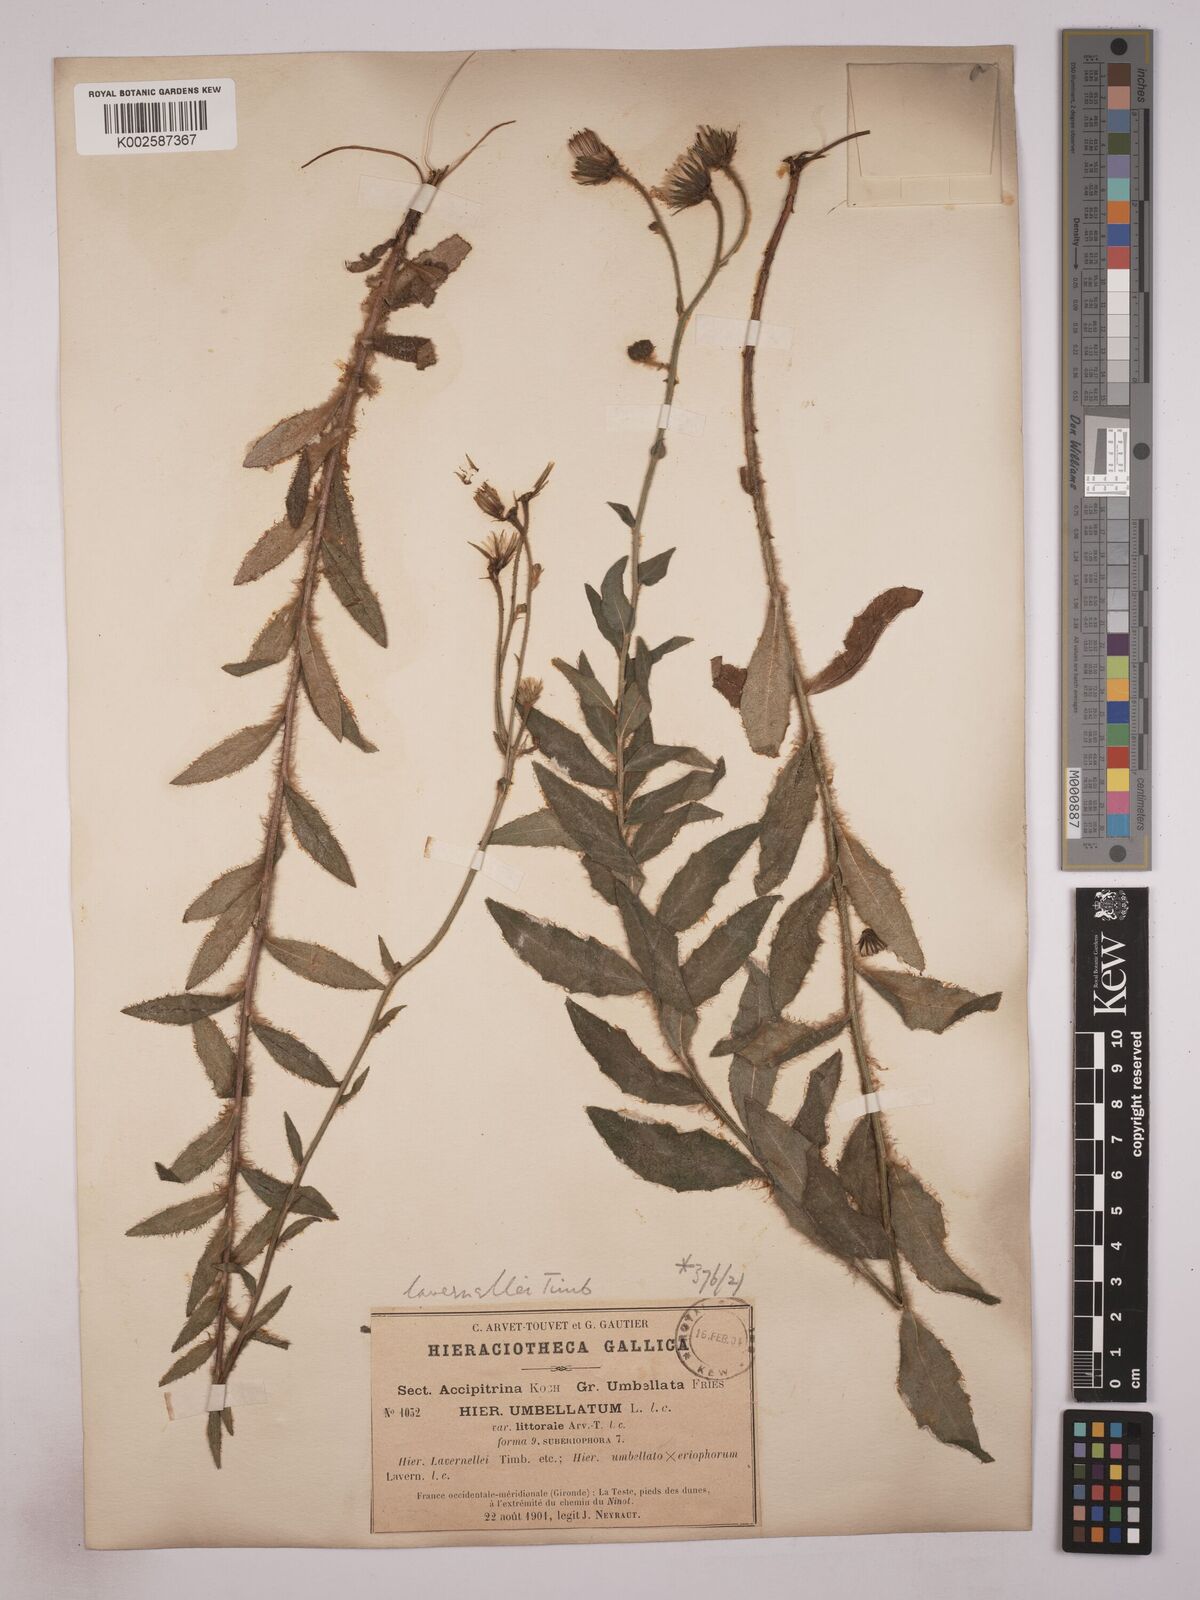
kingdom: Plantae
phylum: Tracheophyta
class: Magnoliopsida
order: Asterales
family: Asteraceae
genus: Hieracium
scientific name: Hieracium
